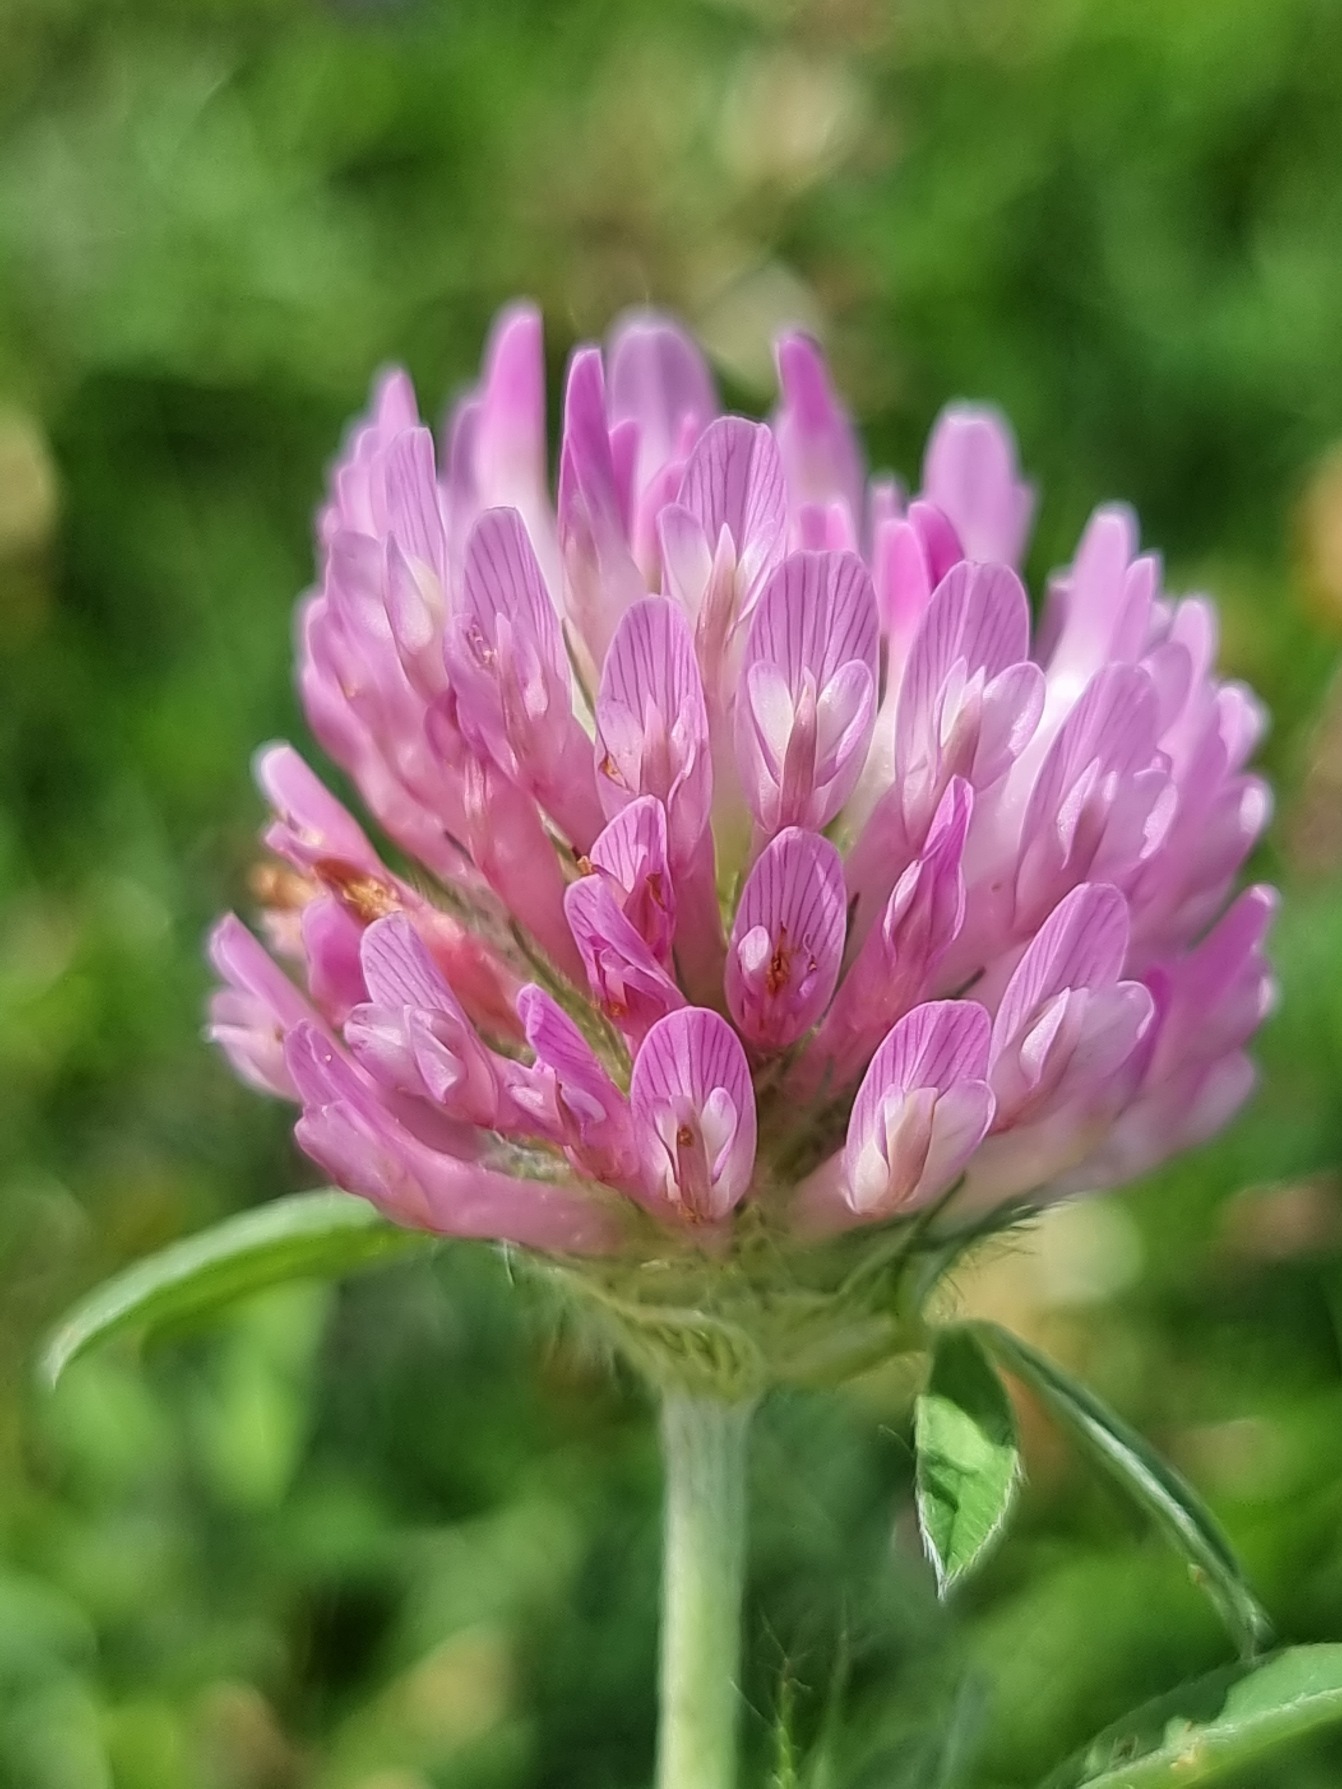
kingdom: Plantae
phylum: Tracheophyta
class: Magnoliopsida
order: Fabales
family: Fabaceae
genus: Trifolium
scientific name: Trifolium pratense
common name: Rød-kløver
